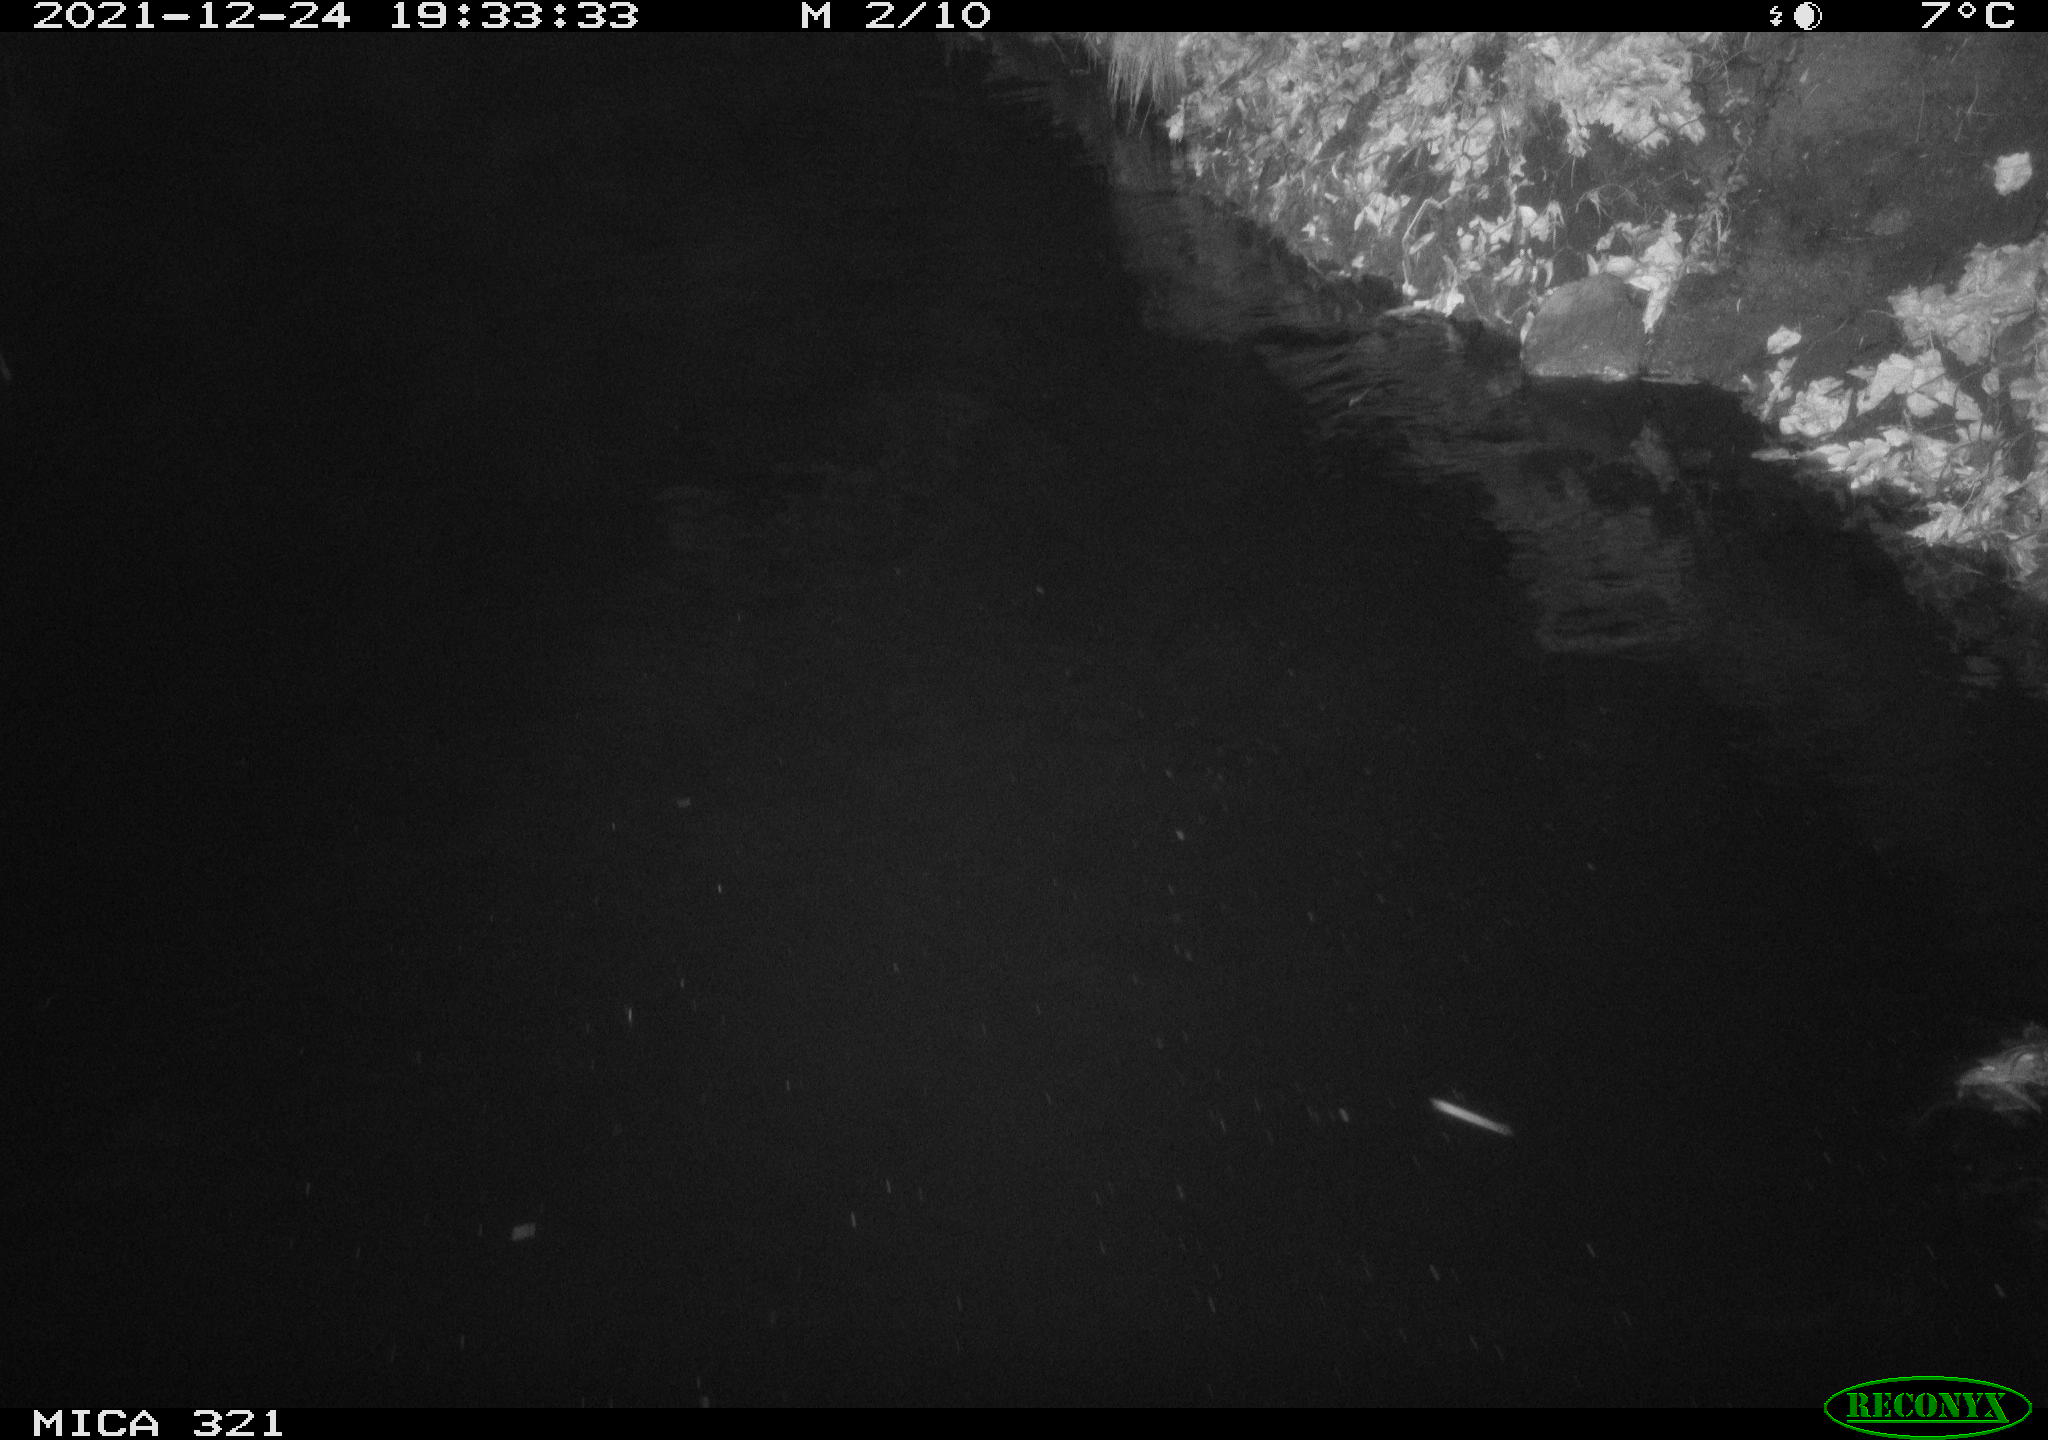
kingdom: Animalia
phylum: Chordata
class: Mammalia
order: Rodentia
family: Muridae
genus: Rattus
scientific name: Rattus norvegicus
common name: Brown rat
